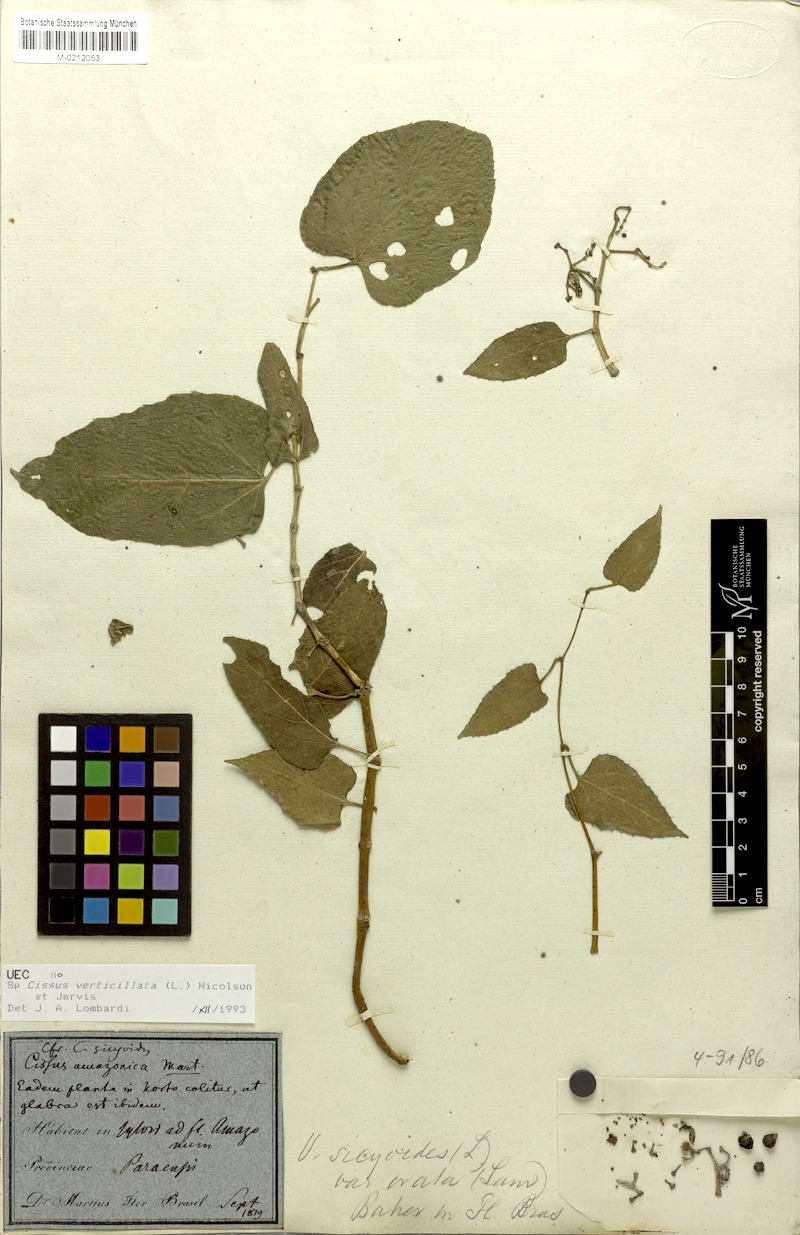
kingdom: Plantae
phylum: Tracheophyta
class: Magnoliopsida
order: Vitales
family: Vitaceae
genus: Cissus
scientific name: Cissus verticillata
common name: Princess vine
